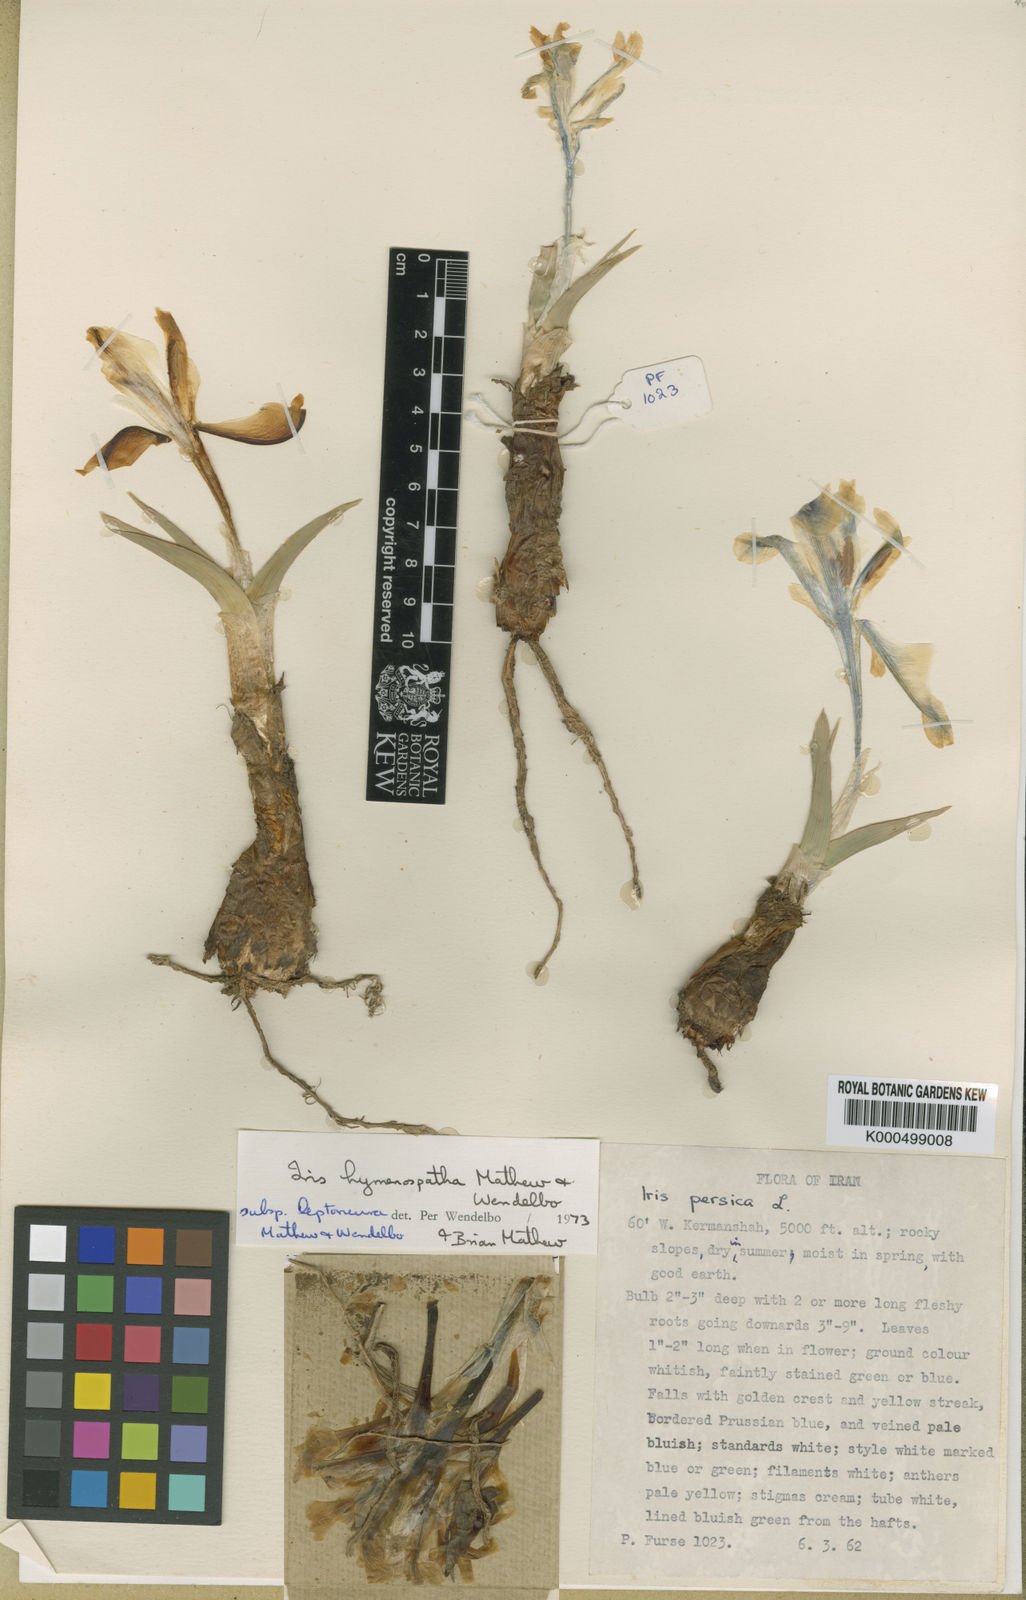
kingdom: Plantae
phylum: Tracheophyta
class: Liliopsida
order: Asparagales
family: Iridaceae
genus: Iris
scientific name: Iris hymenospatha
